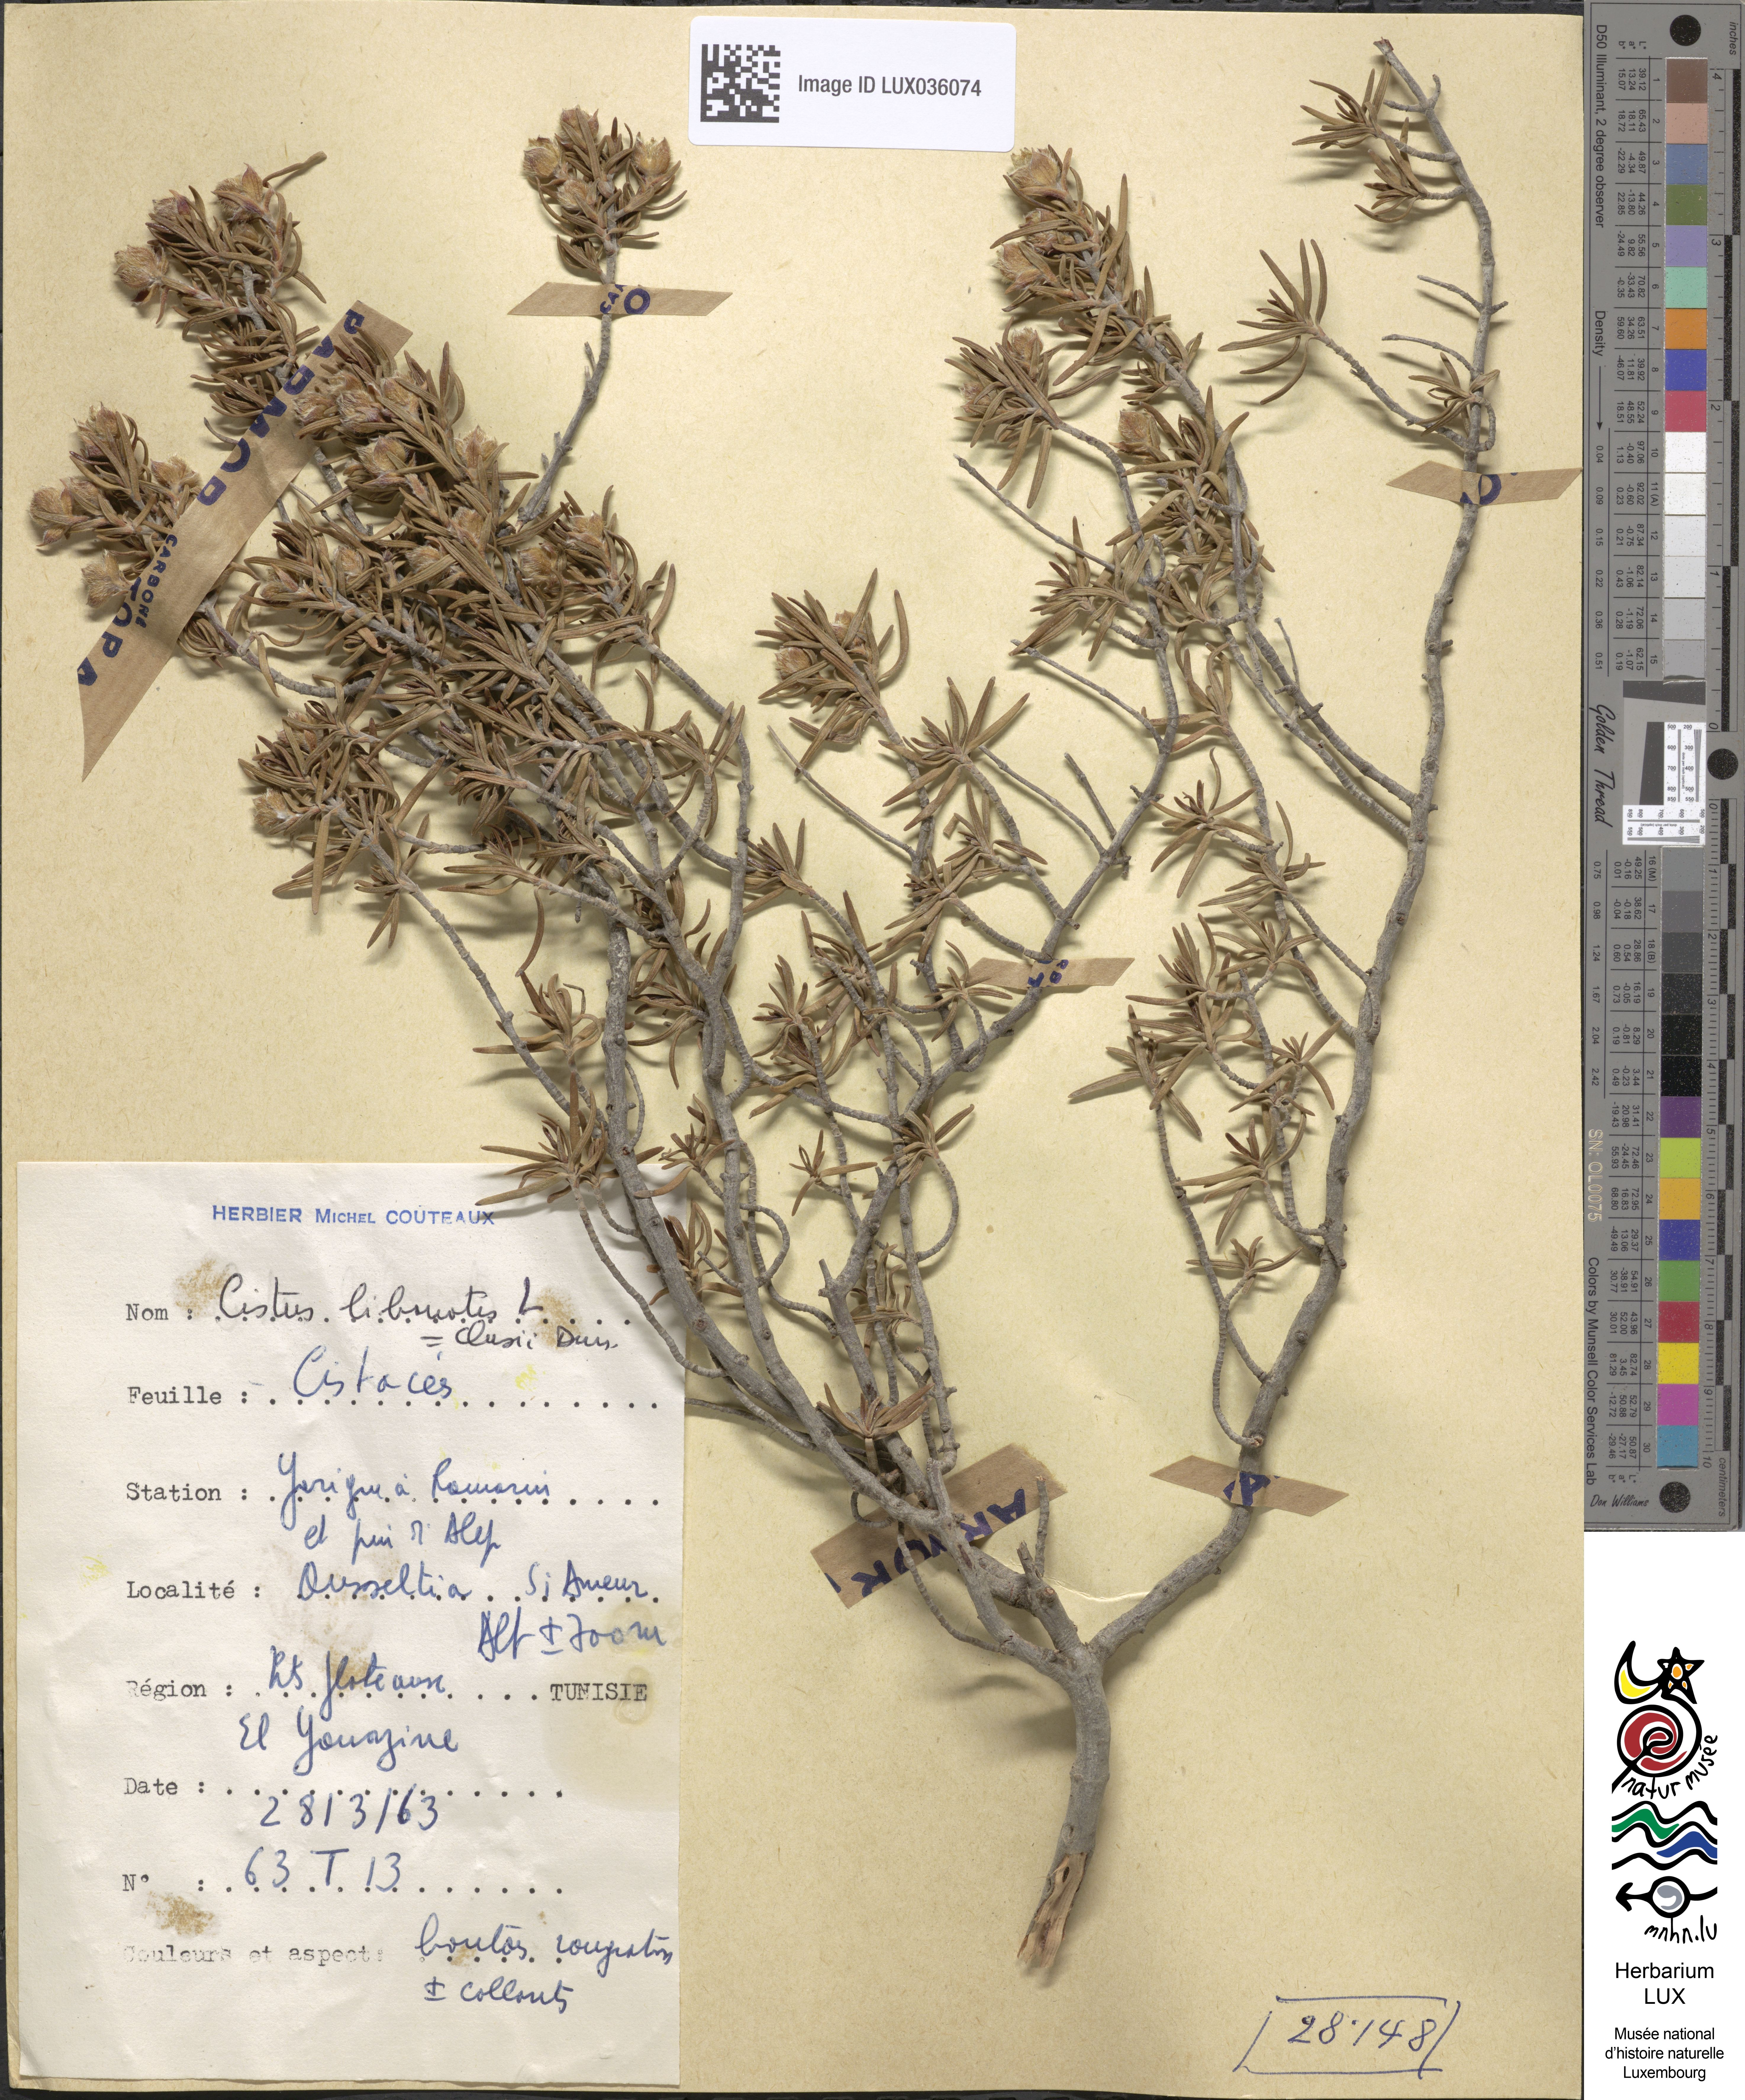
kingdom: Plantae
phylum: Tracheophyta
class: Magnoliopsida
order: Malvales
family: Cistaceae
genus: Cistus
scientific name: Cistus libanotis
